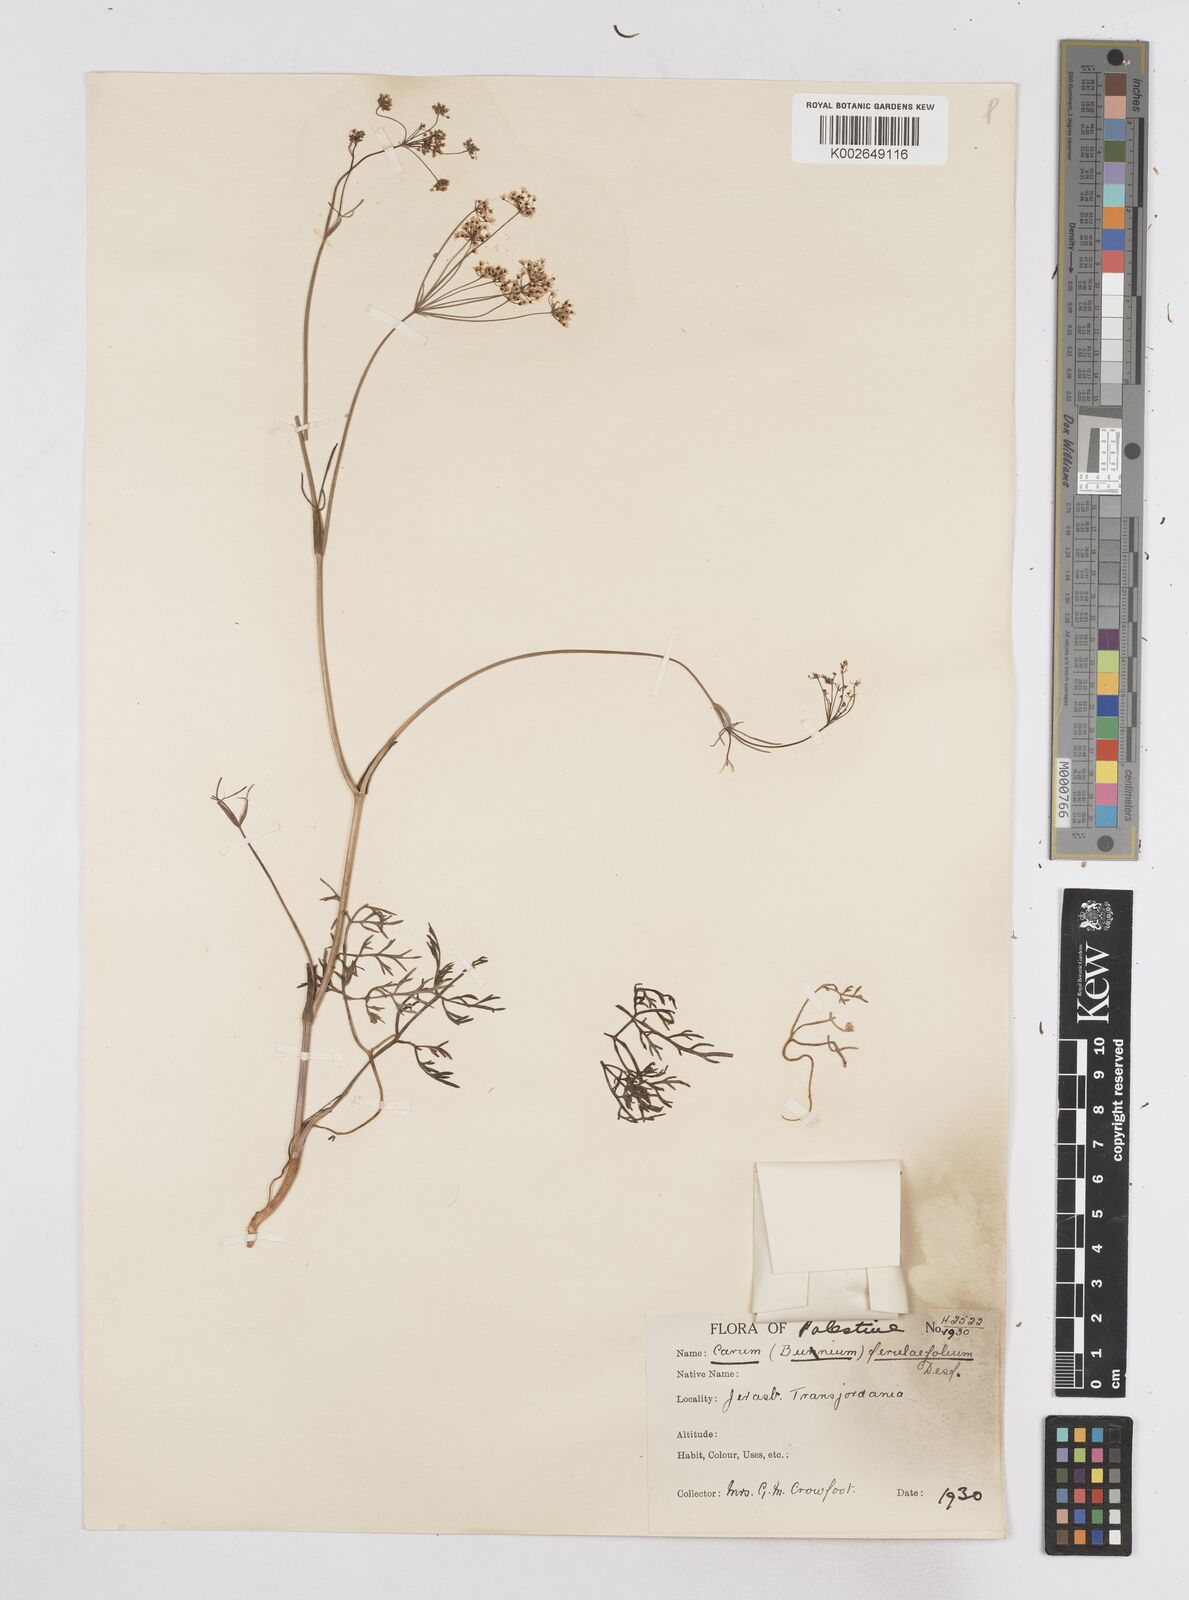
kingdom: Plantae
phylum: Tracheophyta
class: Magnoliopsida
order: Apiales
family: Apiaceae
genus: Bunium
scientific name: Bunium ferulaceum
